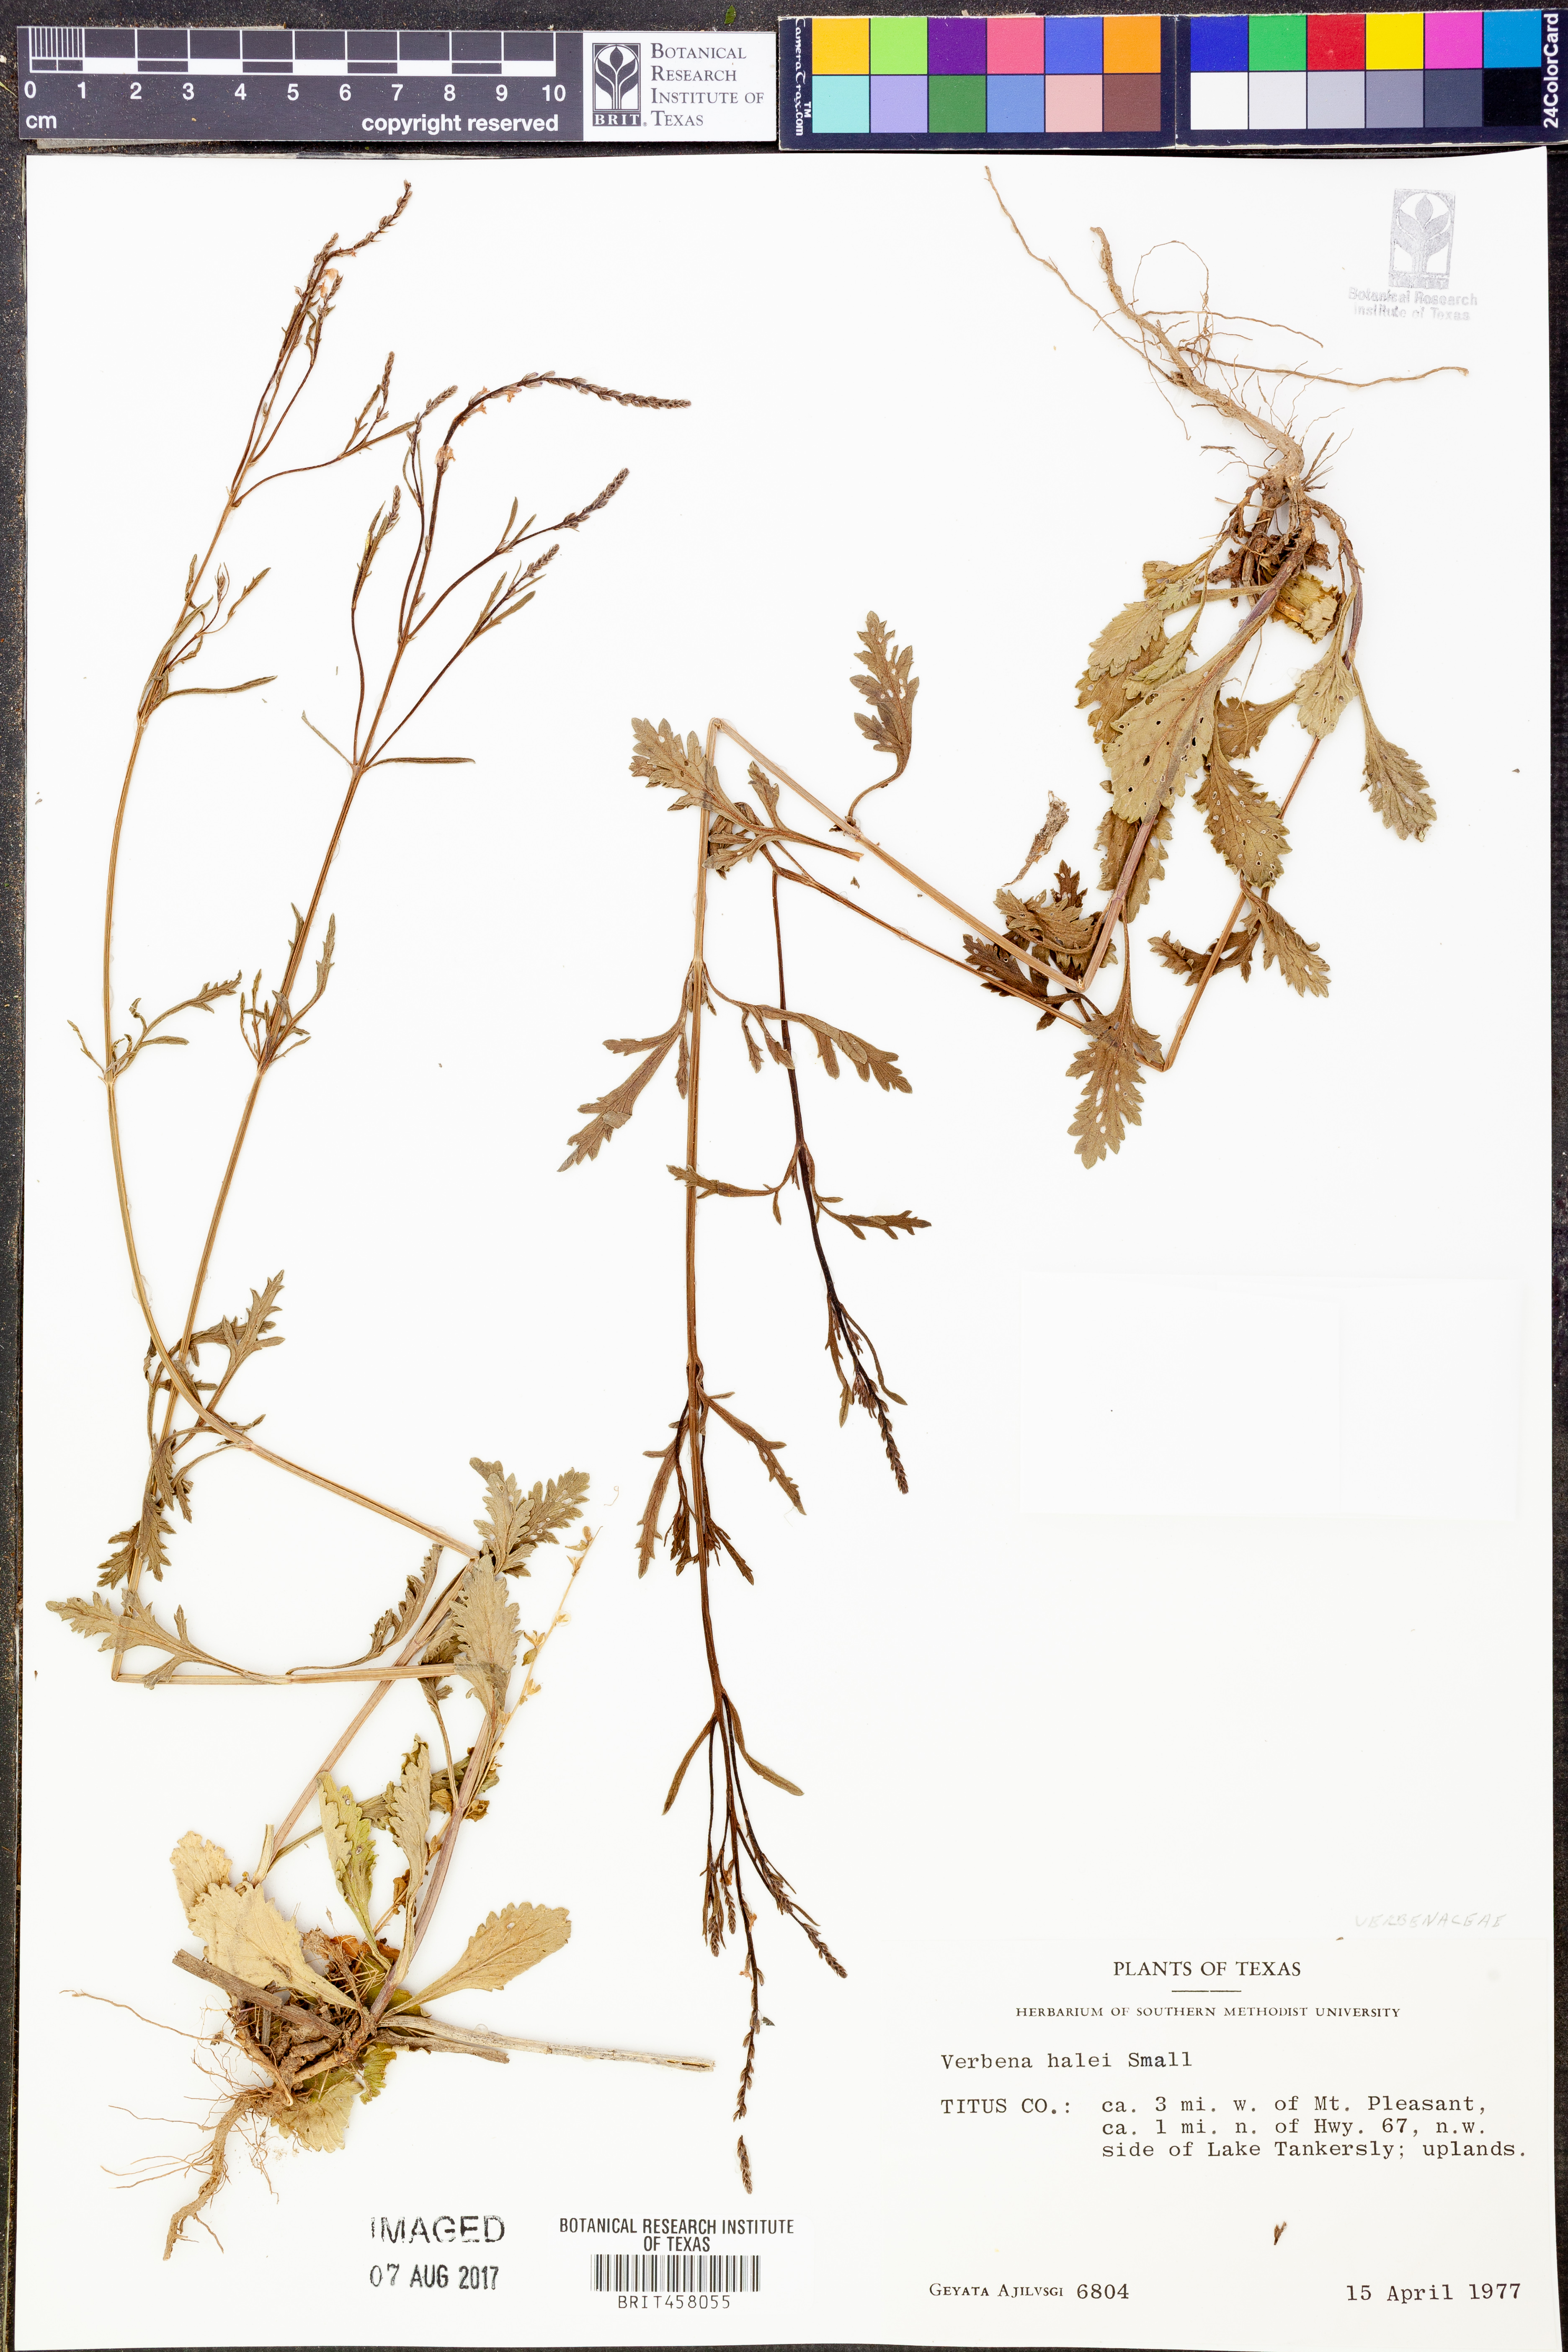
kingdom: Plantae
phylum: Tracheophyta
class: Magnoliopsida
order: Lamiales
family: Verbenaceae
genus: Verbena
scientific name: Verbena halei
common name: Texas vervain
